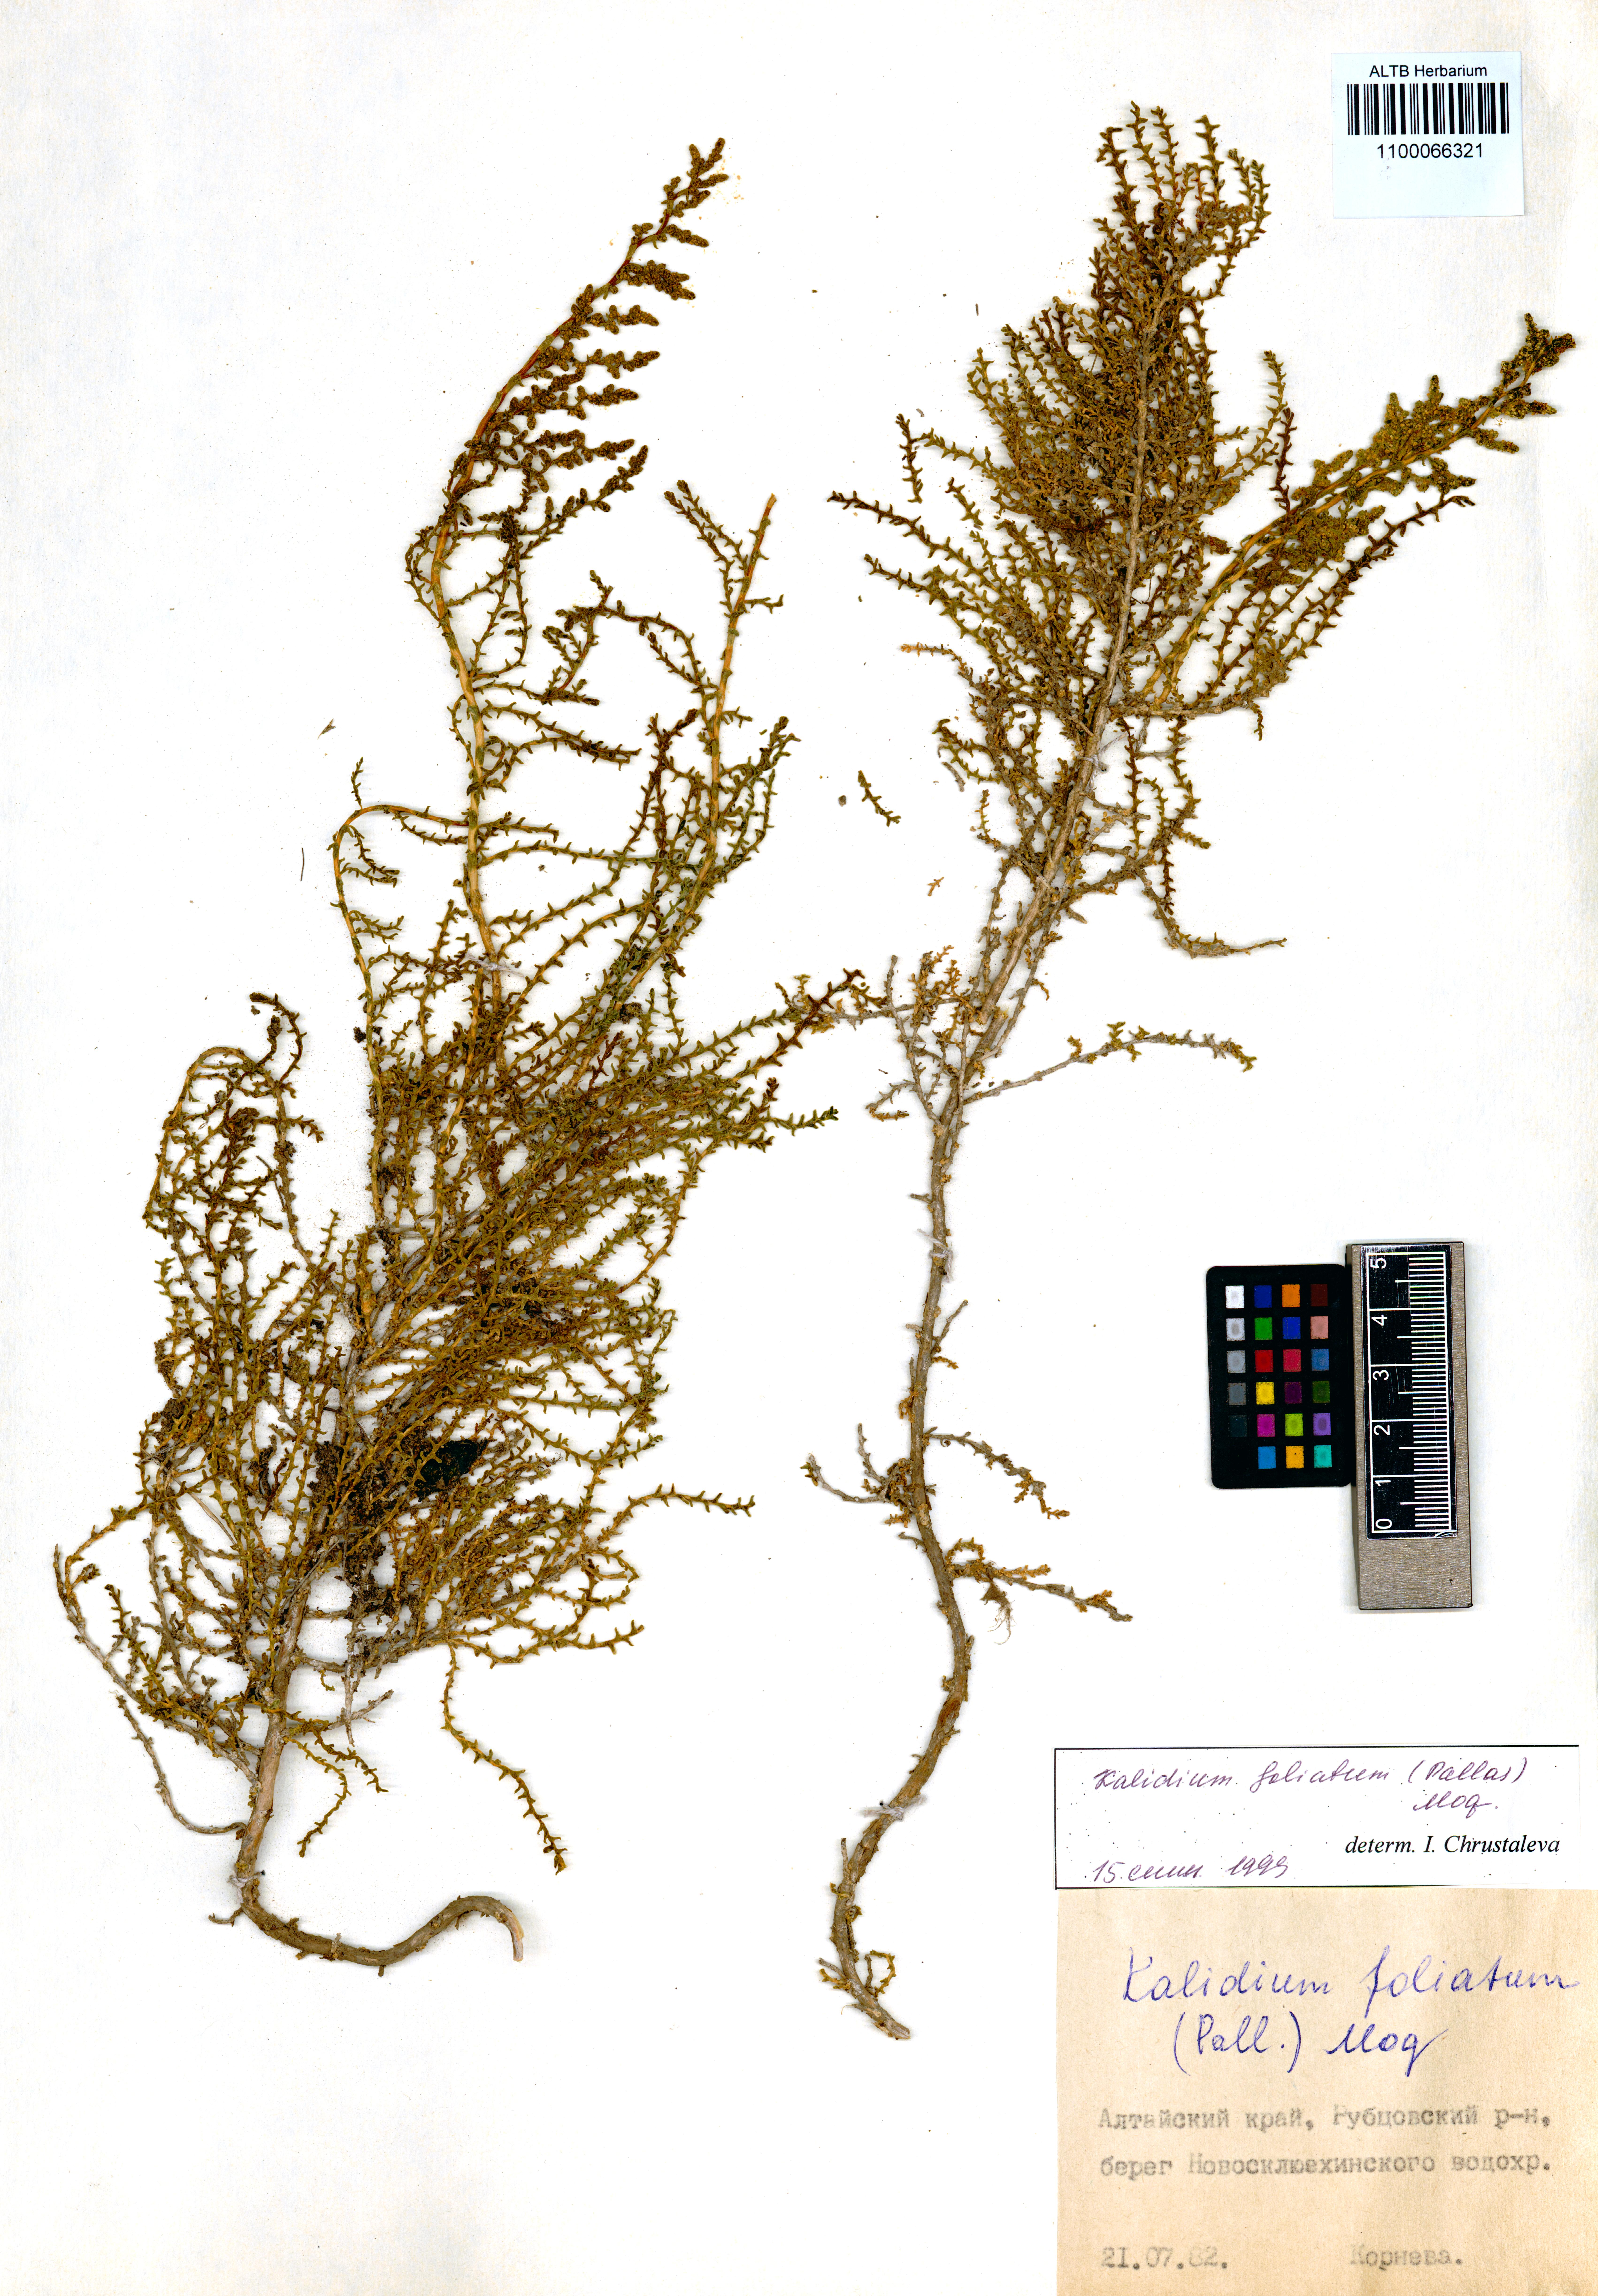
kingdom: Plantae
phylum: Tracheophyta
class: Magnoliopsida
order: Caryophyllales
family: Amaranthaceae
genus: Kalidium
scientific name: Kalidium foliatum
